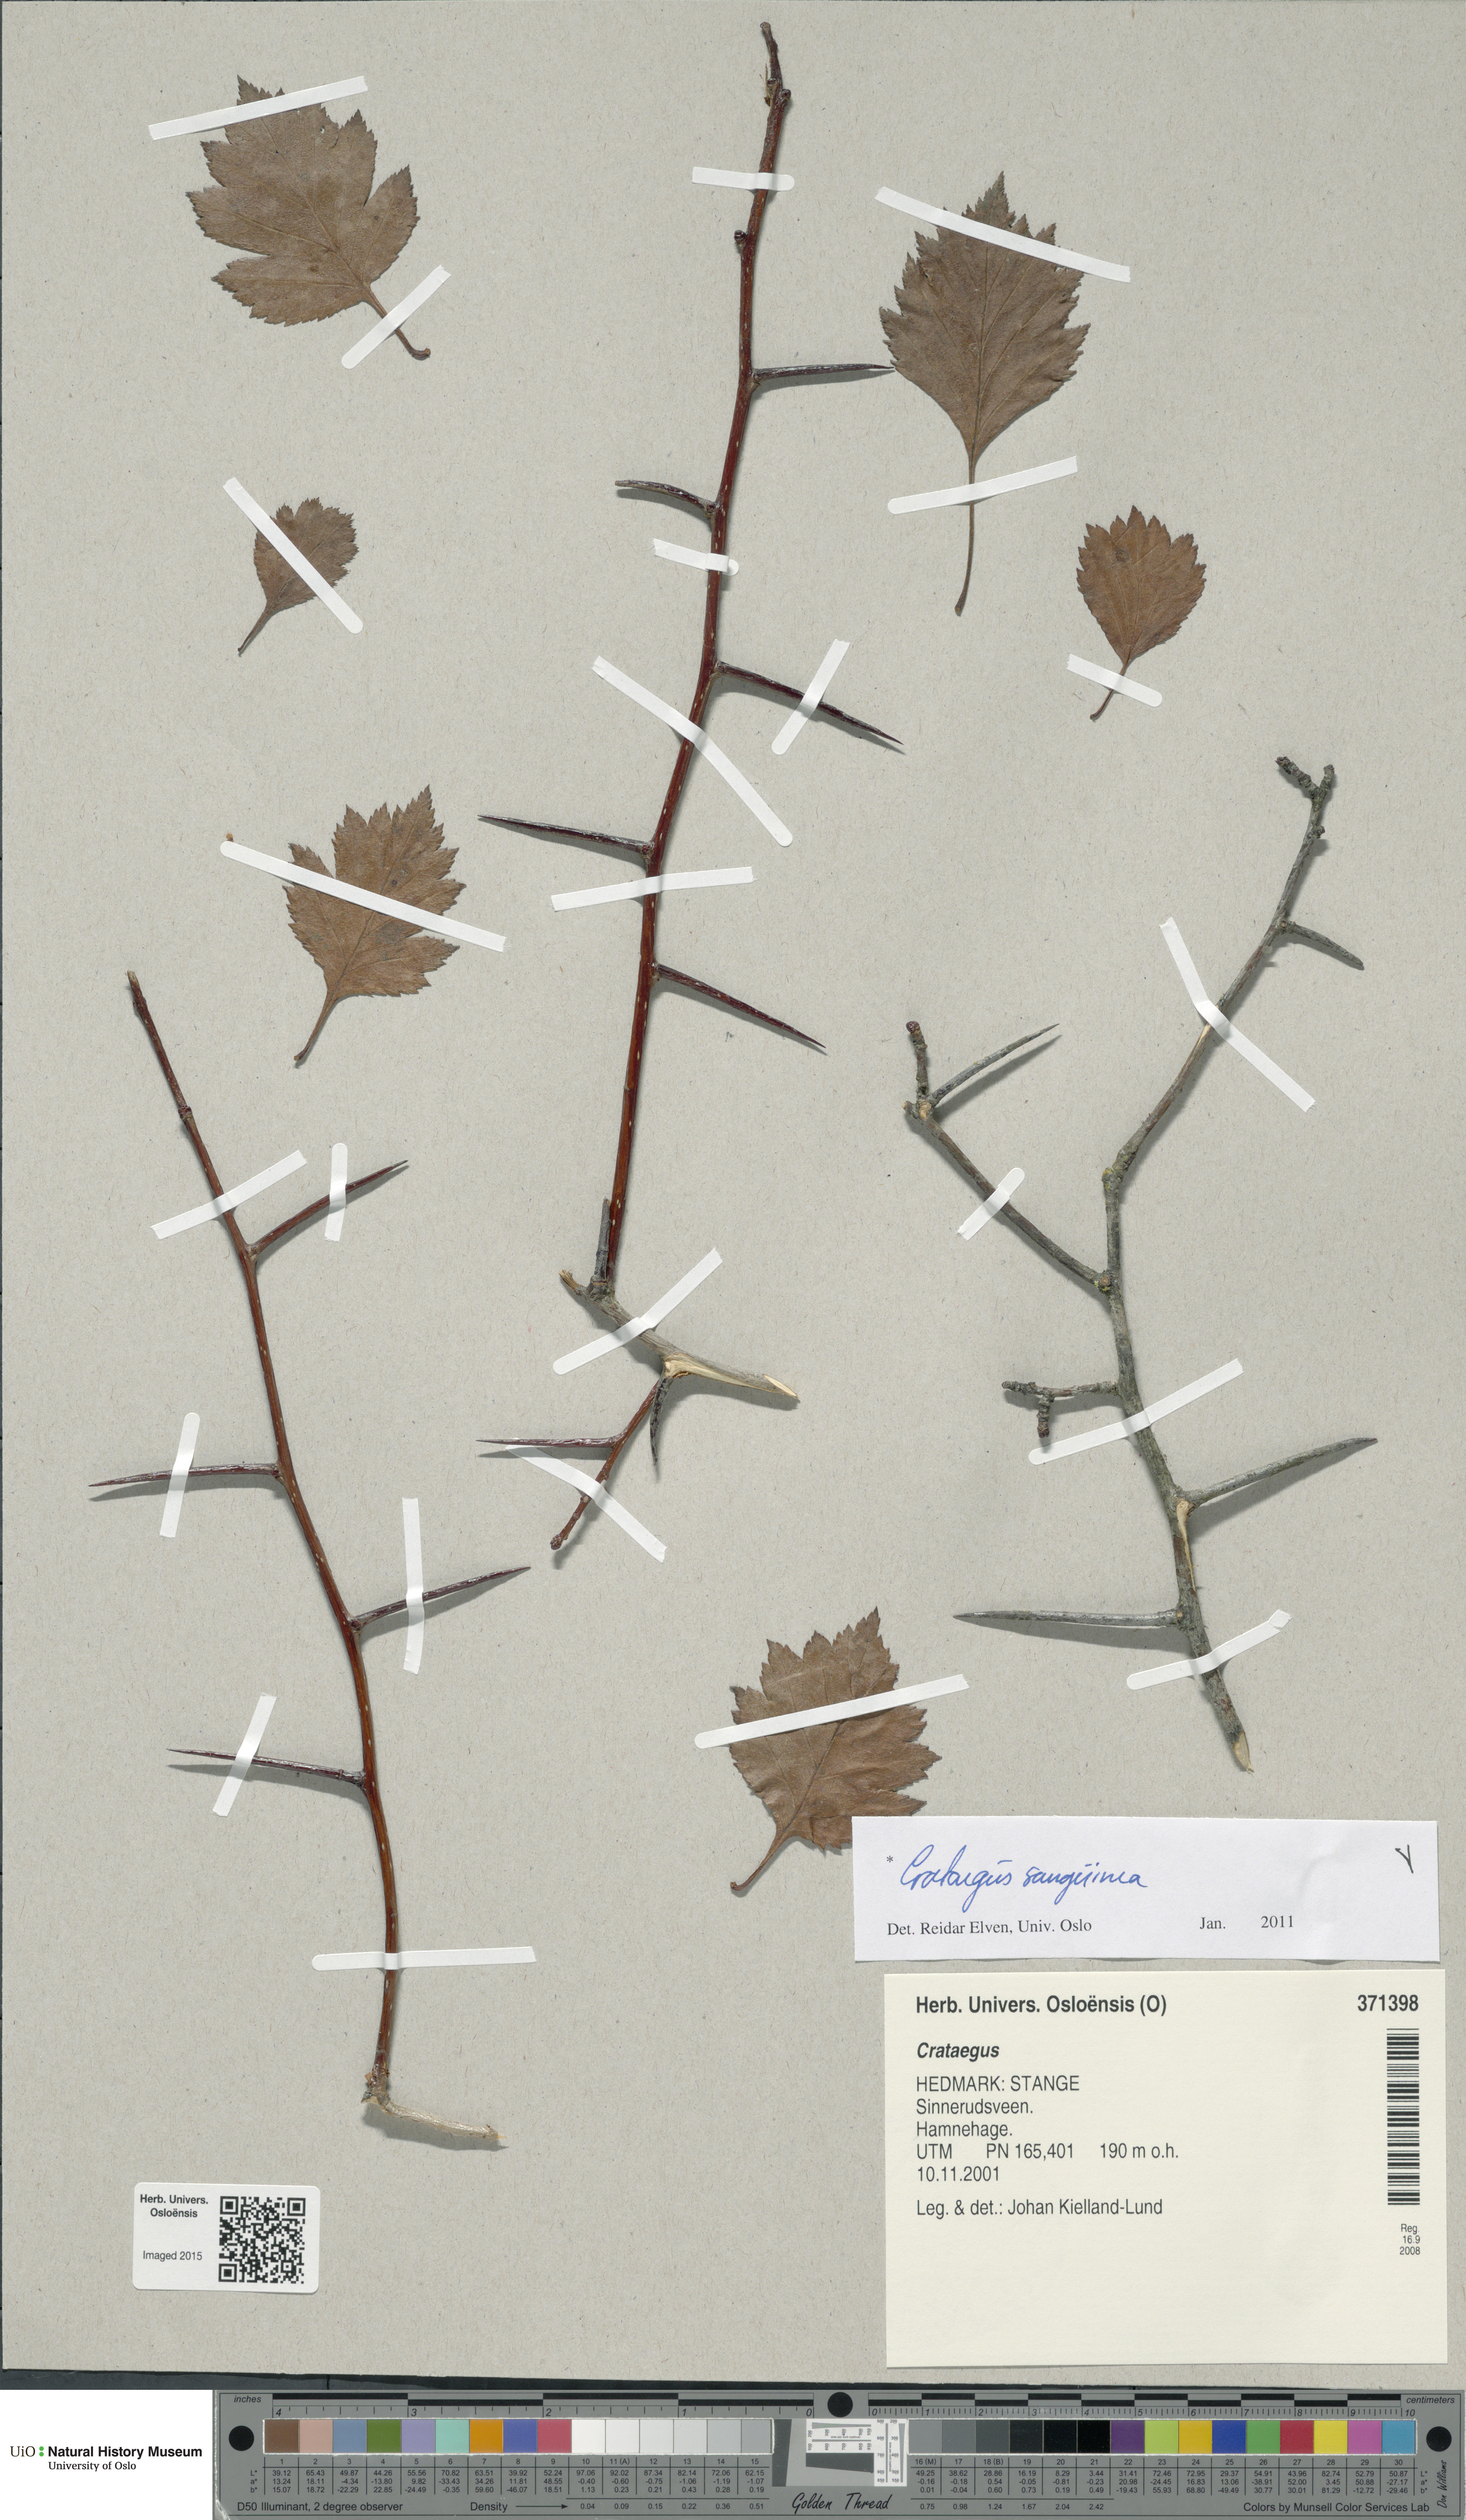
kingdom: Plantae
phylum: Tracheophyta
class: Magnoliopsida
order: Rosales
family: Rosaceae
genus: Crataegus
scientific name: Crataegus sanguinea
